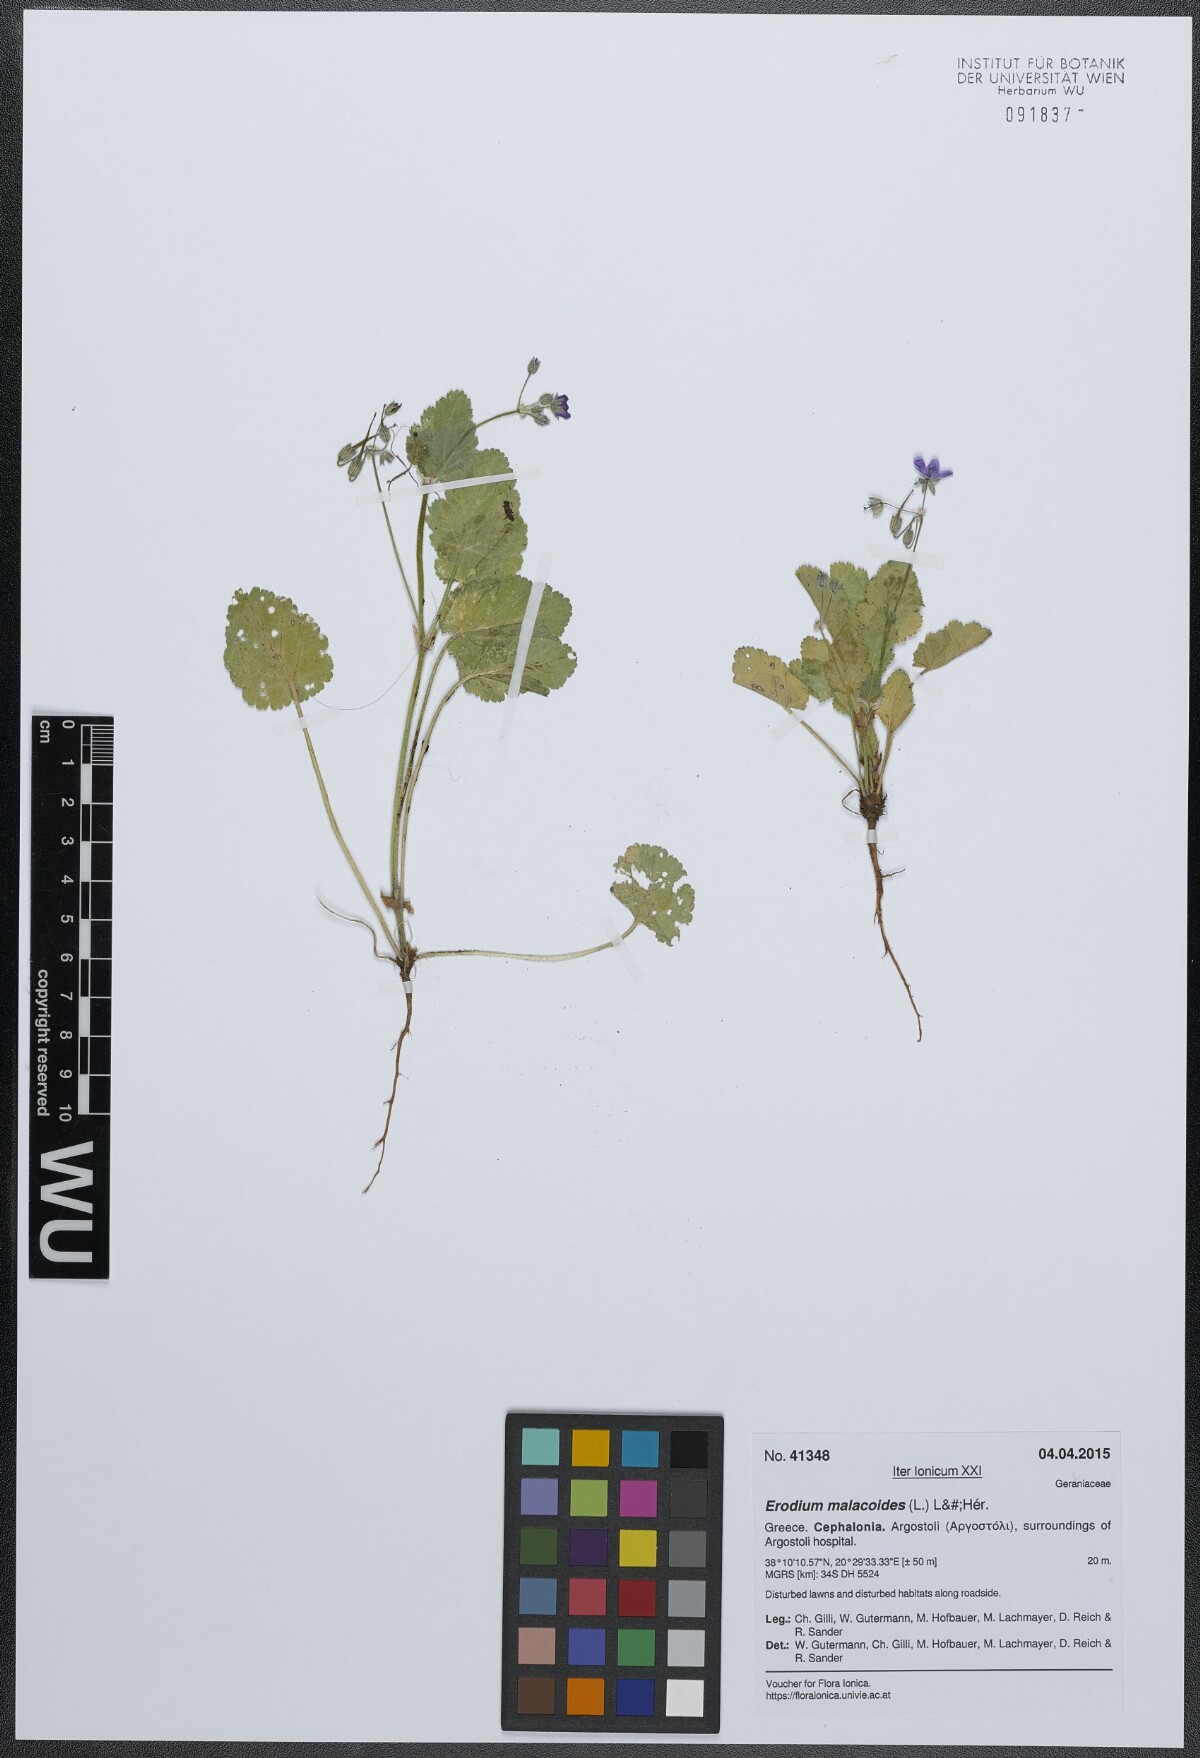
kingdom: Plantae
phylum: Tracheophyta
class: Magnoliopsida
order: Geraniales
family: Geraniaceae
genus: Erodium
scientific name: Erodium malacoides
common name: Soft stork's-bill
